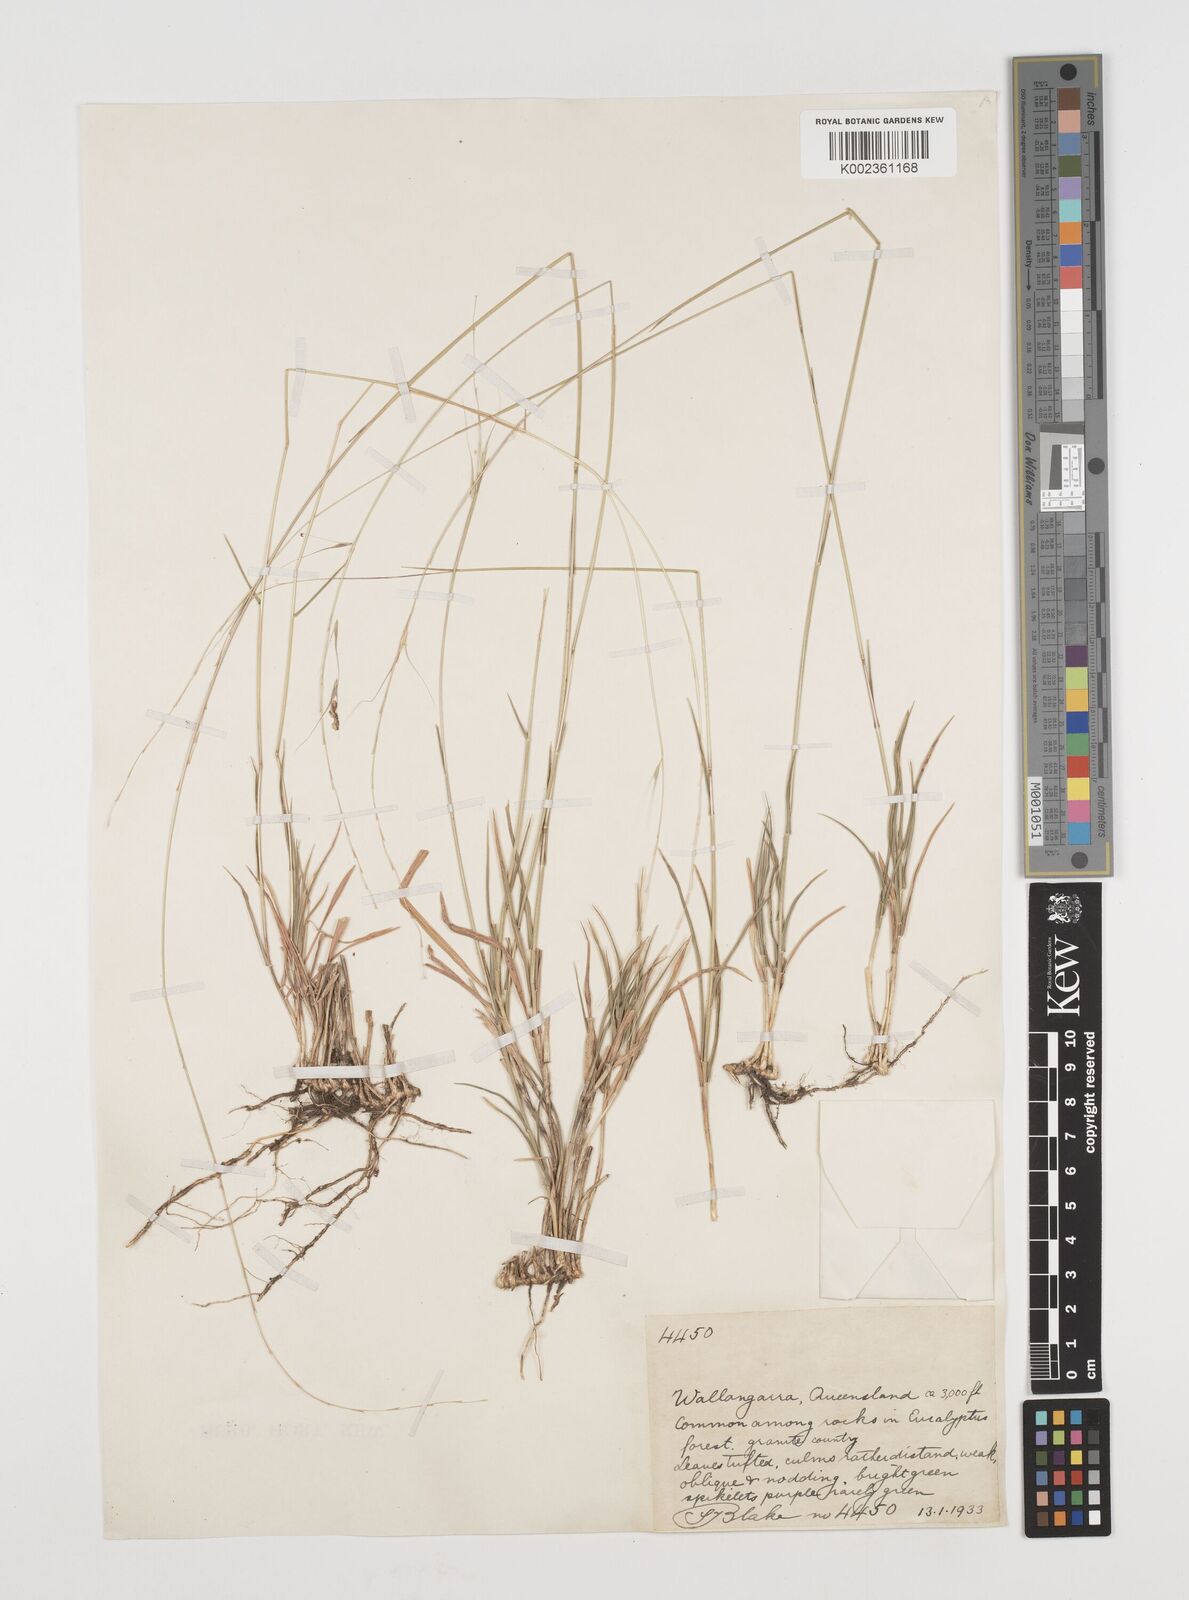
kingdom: Plantae
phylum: Tracheophyta
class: Liliopsida
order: Poales
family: Poaceae
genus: Microlaena
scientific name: Microlaena stipoides
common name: Meadow ricegrass
